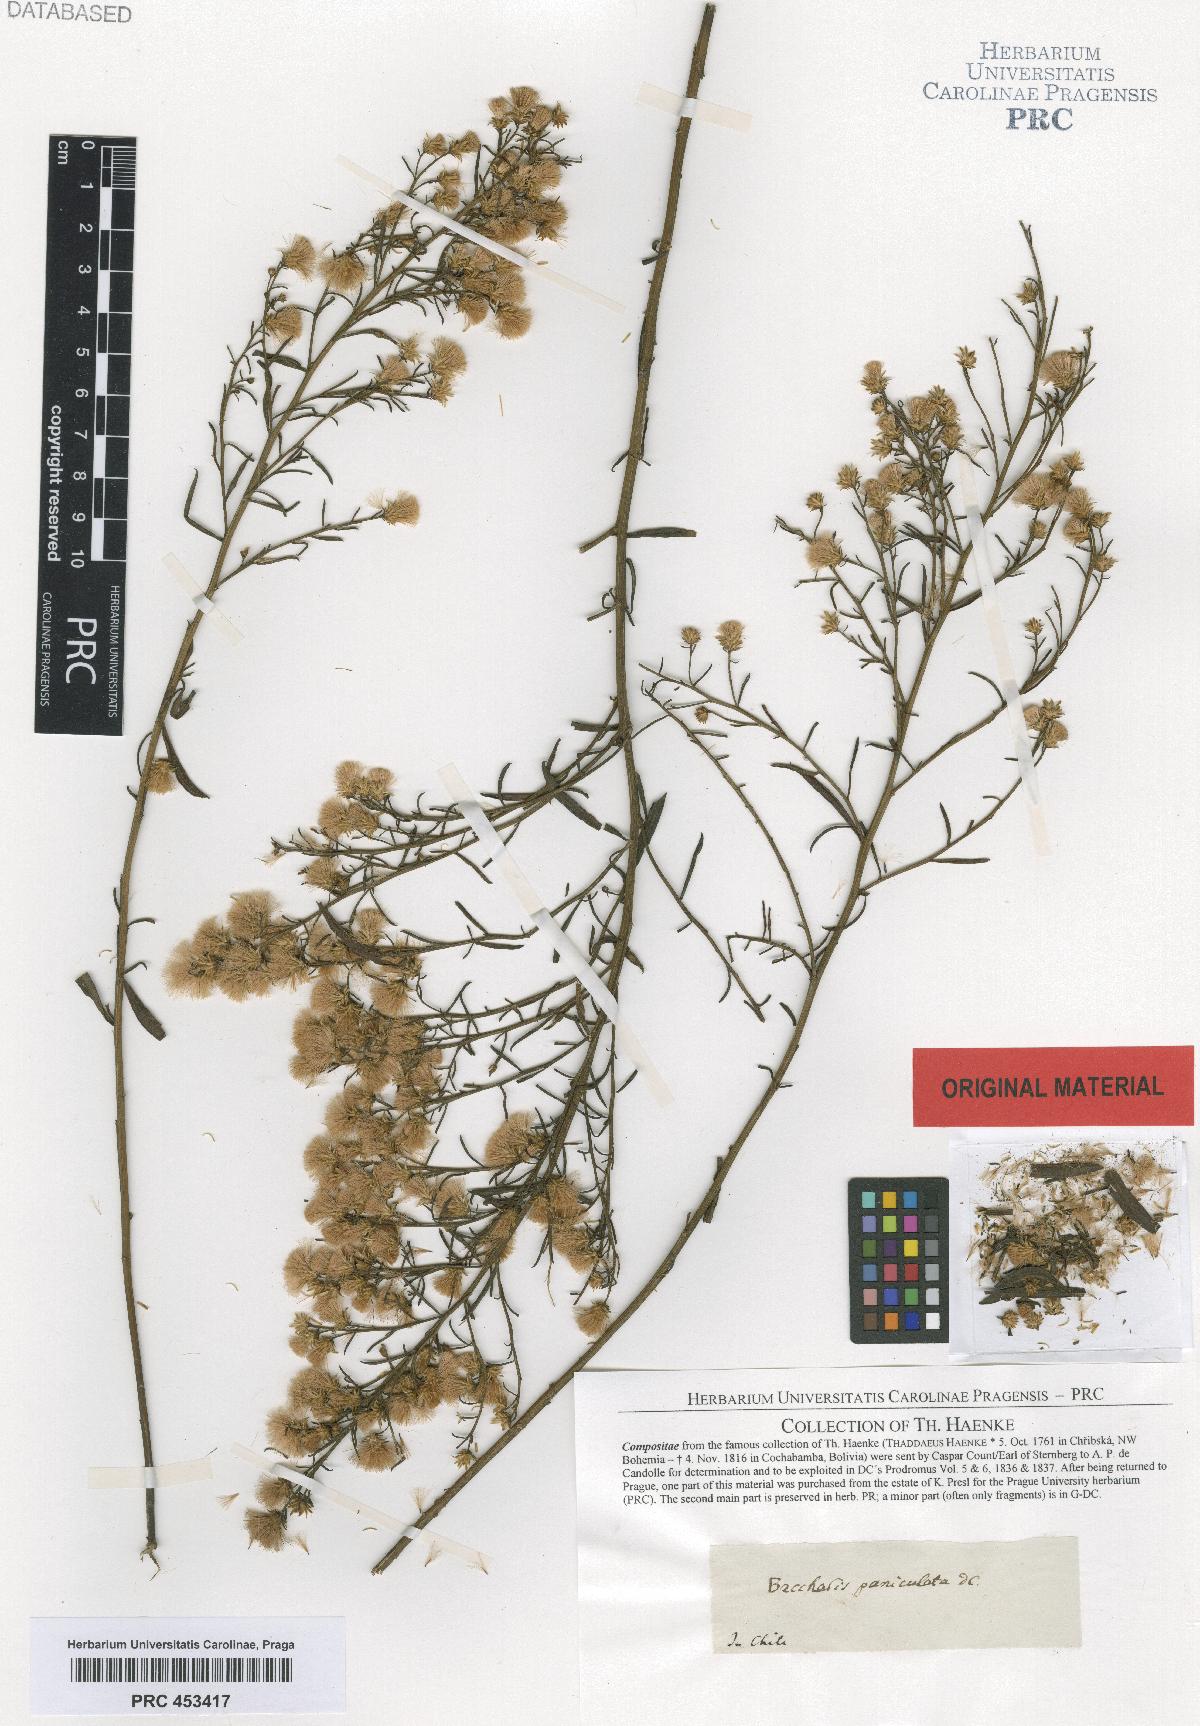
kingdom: Plantae
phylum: Tracheophyta
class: Magnoliopsida
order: Asterales
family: Asteraceae
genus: Baccharis
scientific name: Baccharis paniculata
